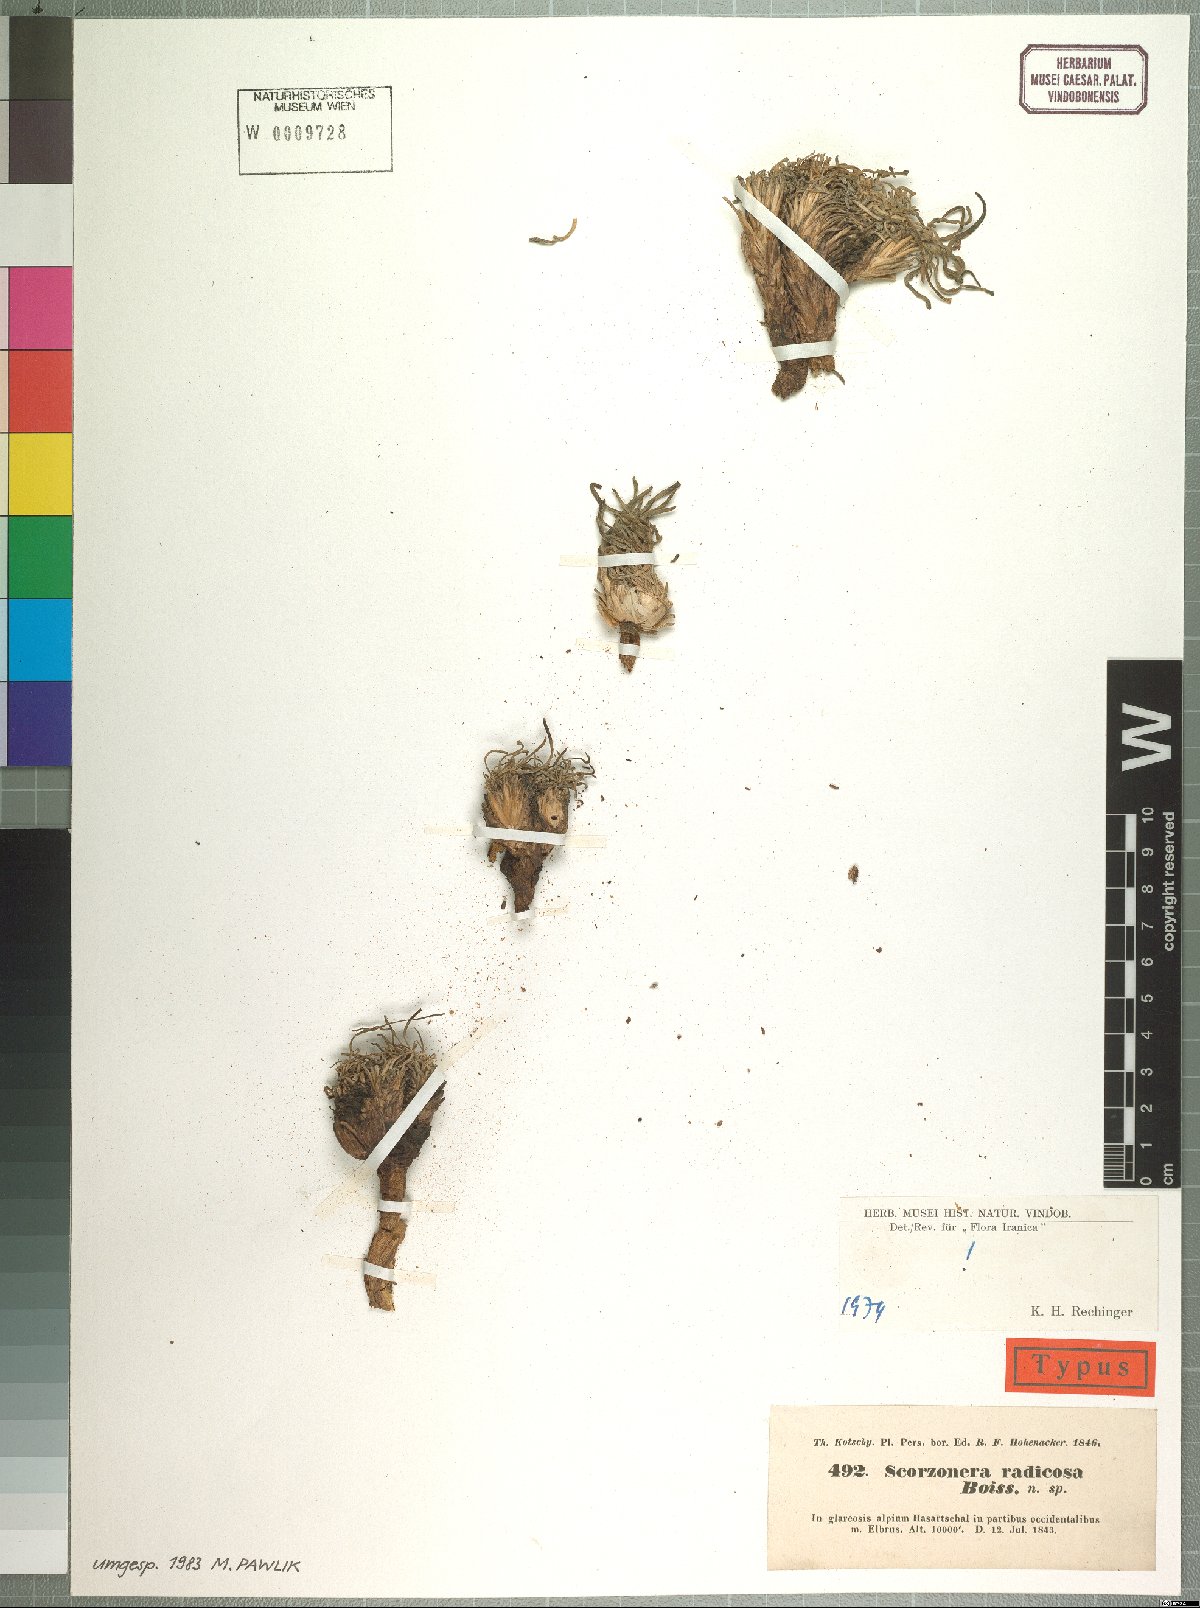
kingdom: Plantae
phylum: Tracheophyta
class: Magnoliopsida
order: Asterales
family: Asteraceae
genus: Scorzonera
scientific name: Scorzonera radicosa
